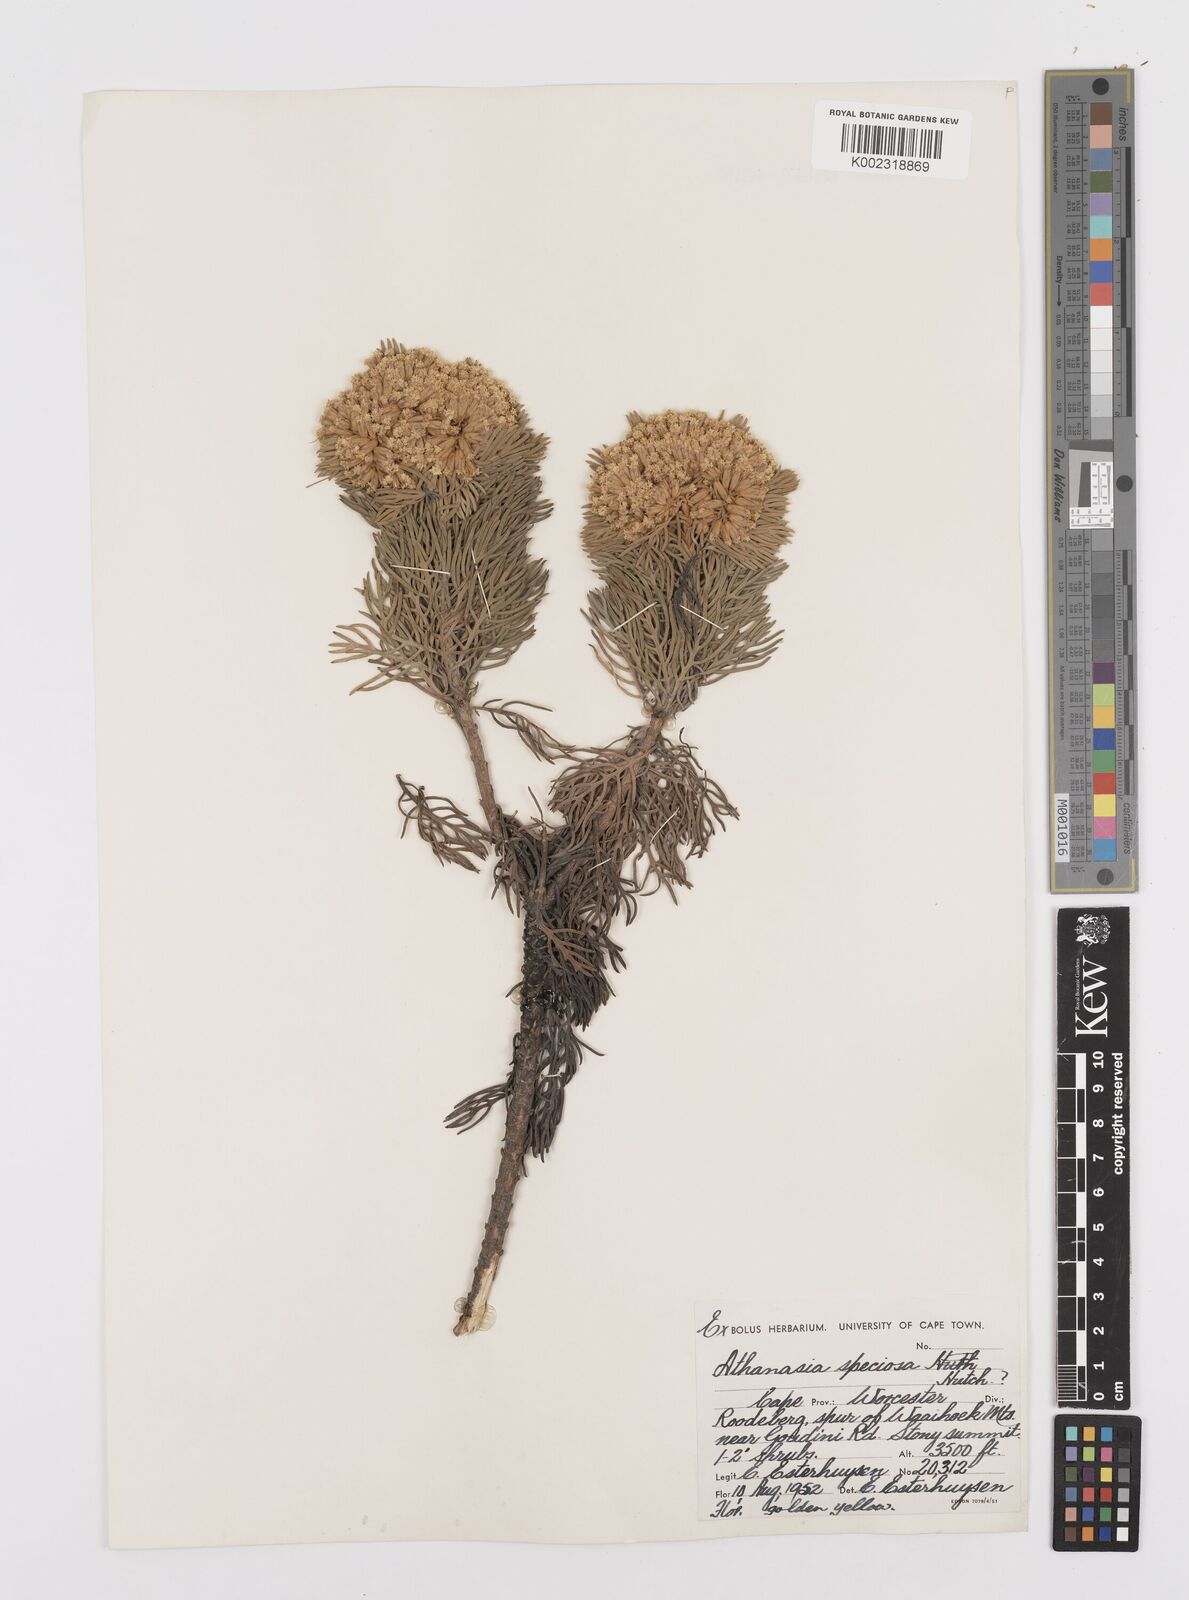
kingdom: Plantae
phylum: Tracheophyta
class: Magnoliopsida
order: Asterales
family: Asteraceae
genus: Hymenolepis
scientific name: Hymenolepis speciosa
